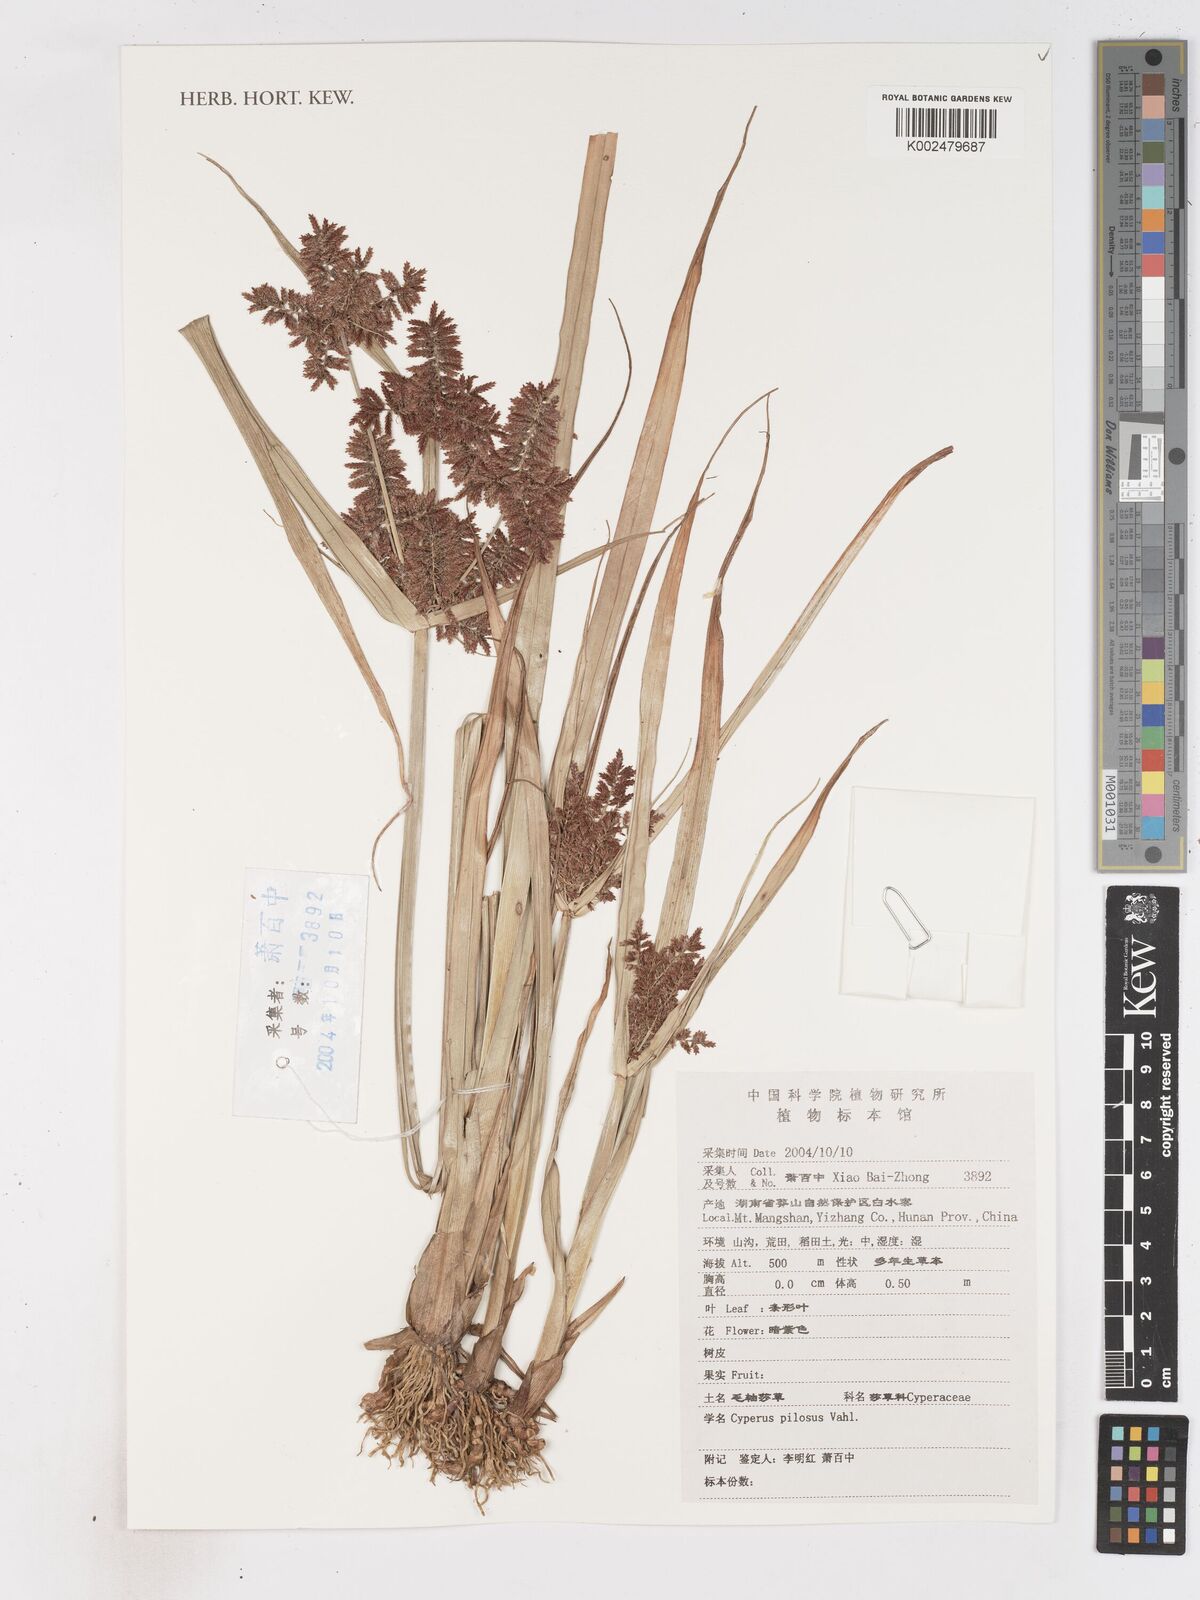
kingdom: Plantae
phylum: Tracheophyta
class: Liliopsida
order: Poales
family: Cyperaceae
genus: Cyperus
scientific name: Cyperus pilosus
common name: Fuzzy flatsedge
